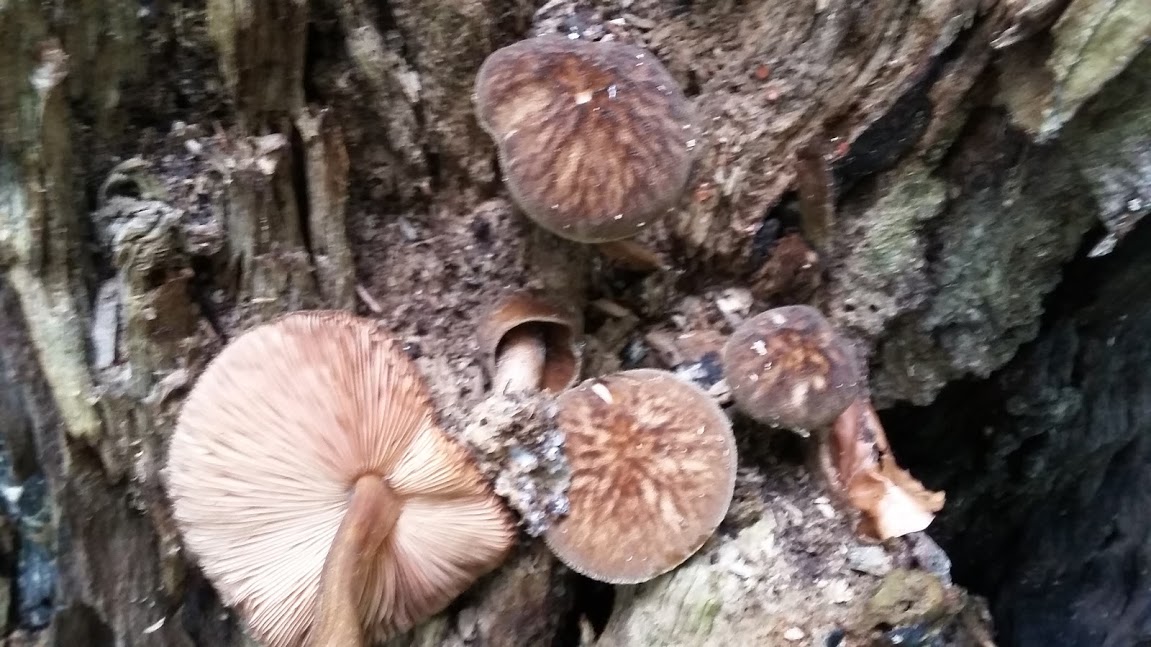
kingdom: Fungi
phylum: Basidiomycota
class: Agaricomycetes
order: Agaricales
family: Pluteaceae
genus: Pluteus
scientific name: Pluteus umbrosus
